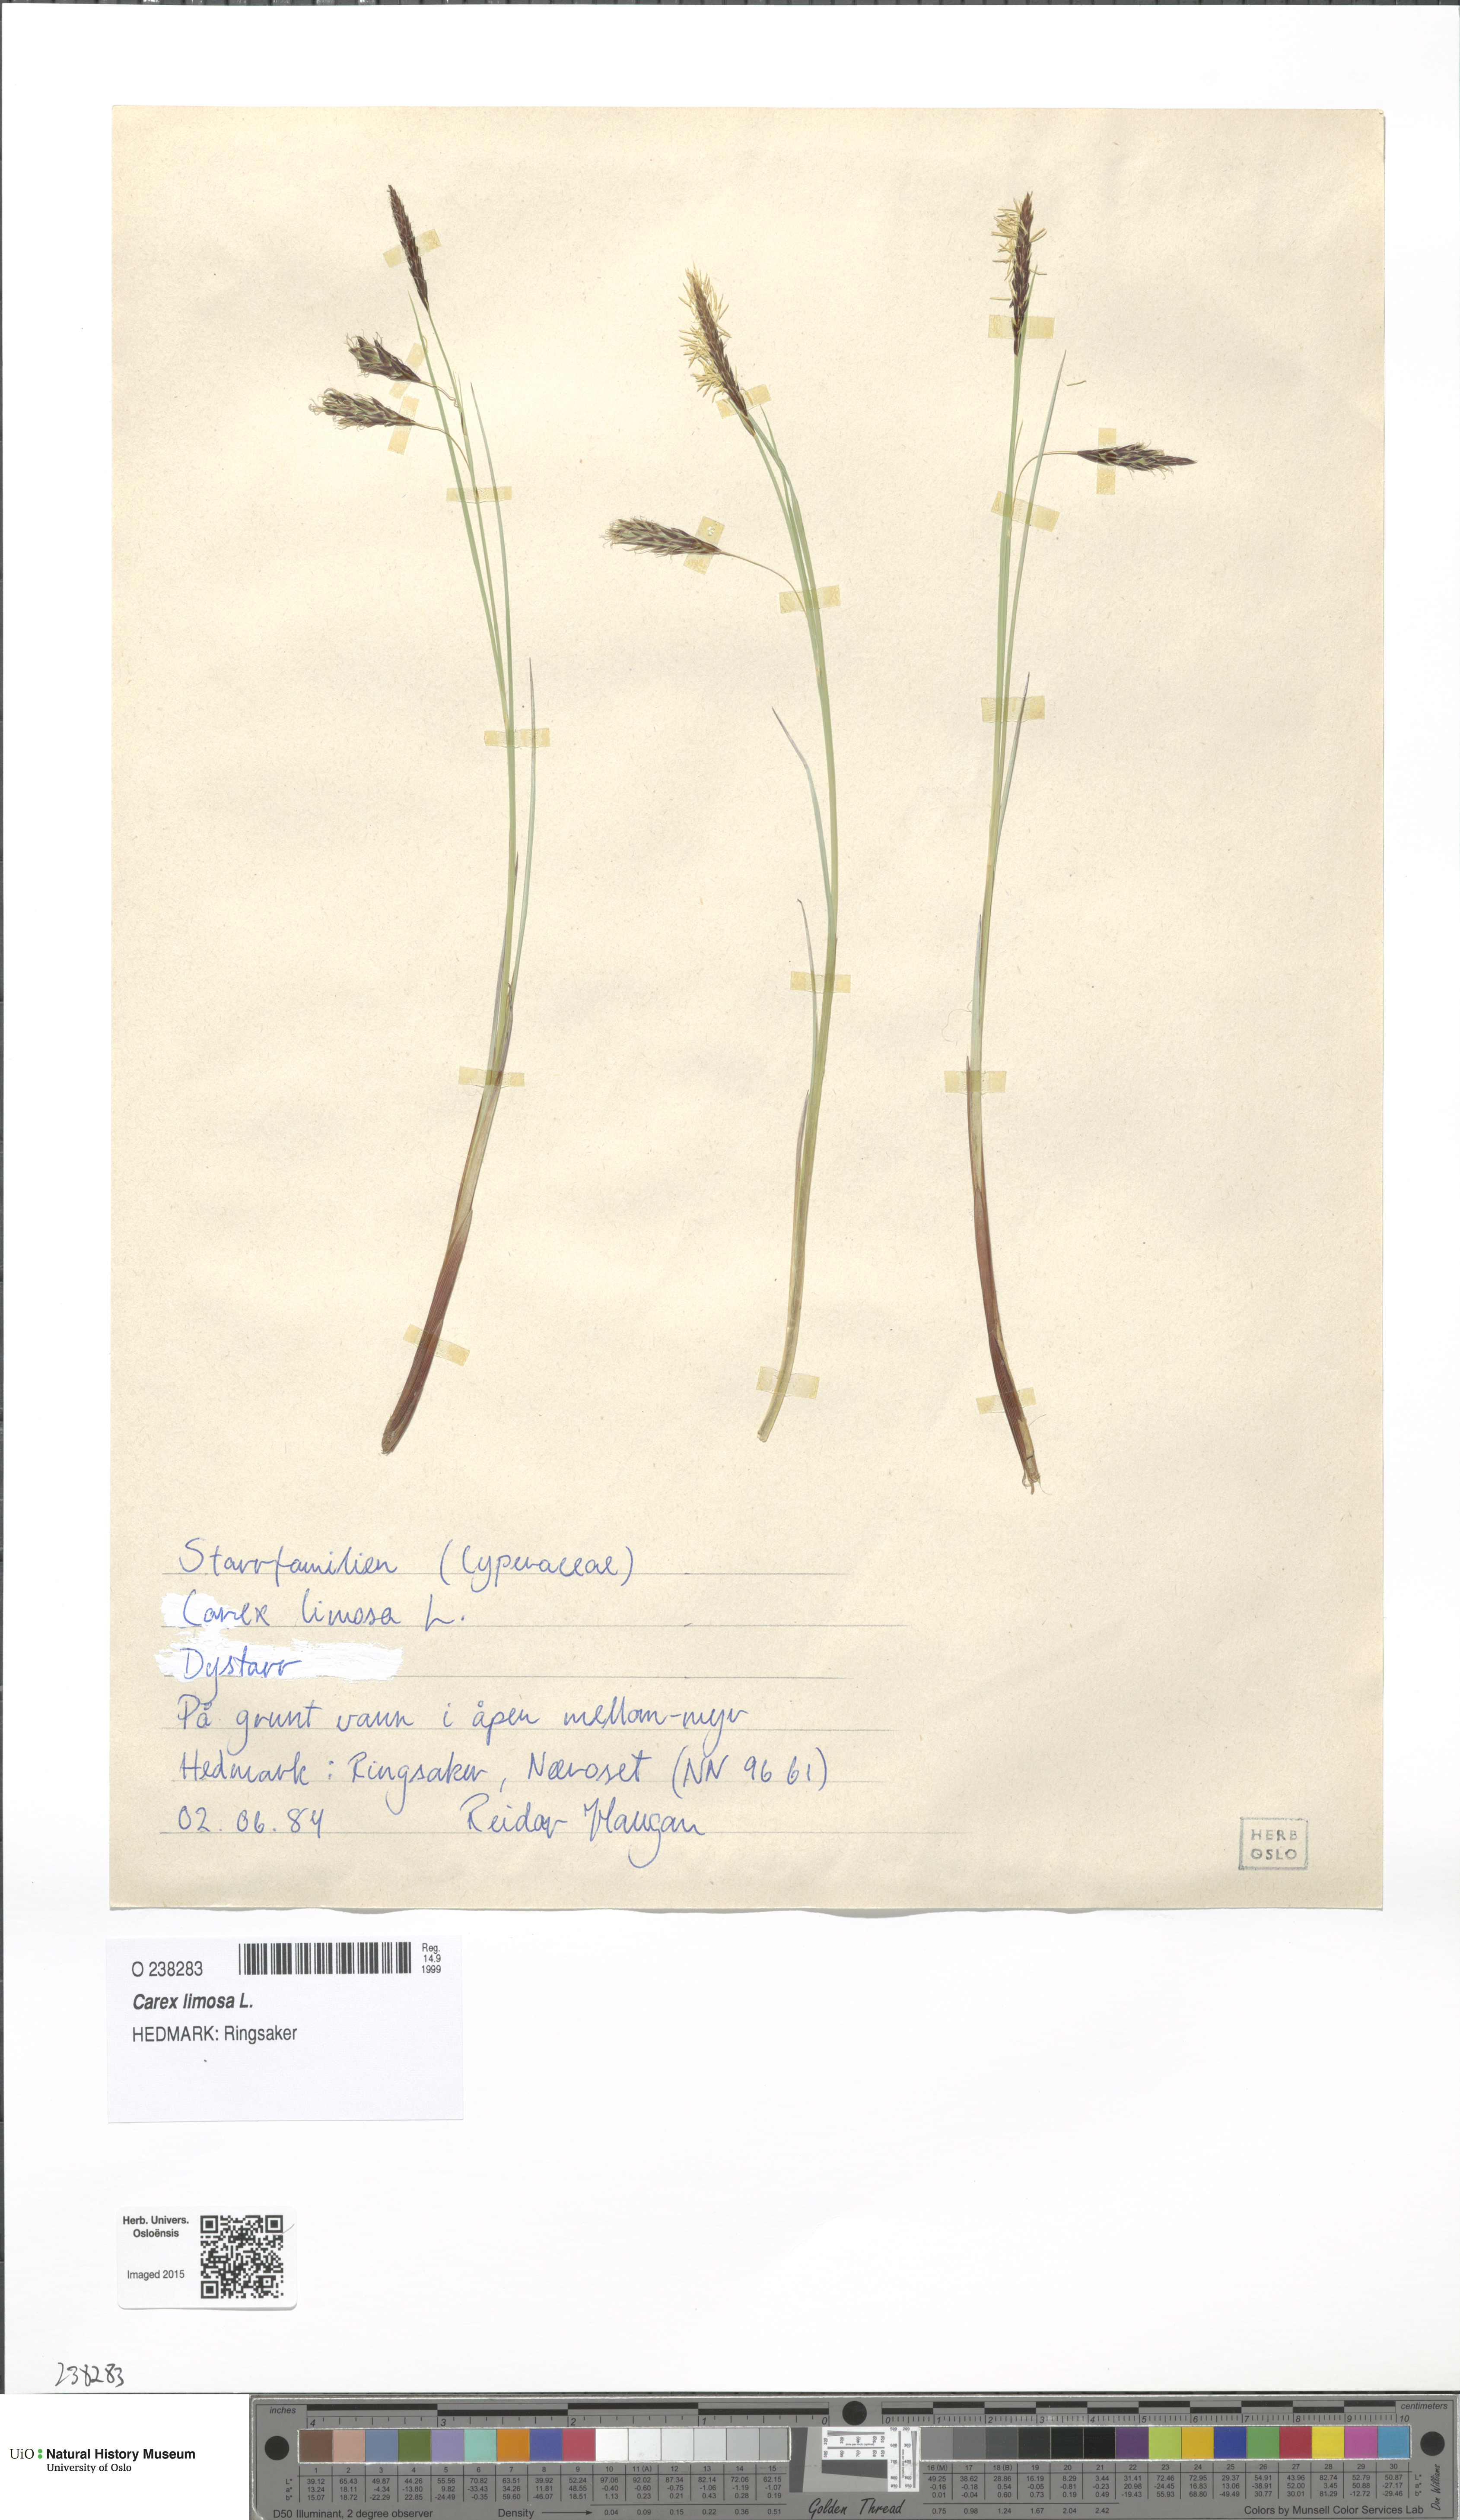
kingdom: Plantae
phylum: Tracheophyta
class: Liliopsida
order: Poales
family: Cyperaceae
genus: Carex
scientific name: Carex limosa
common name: Bog sedge
